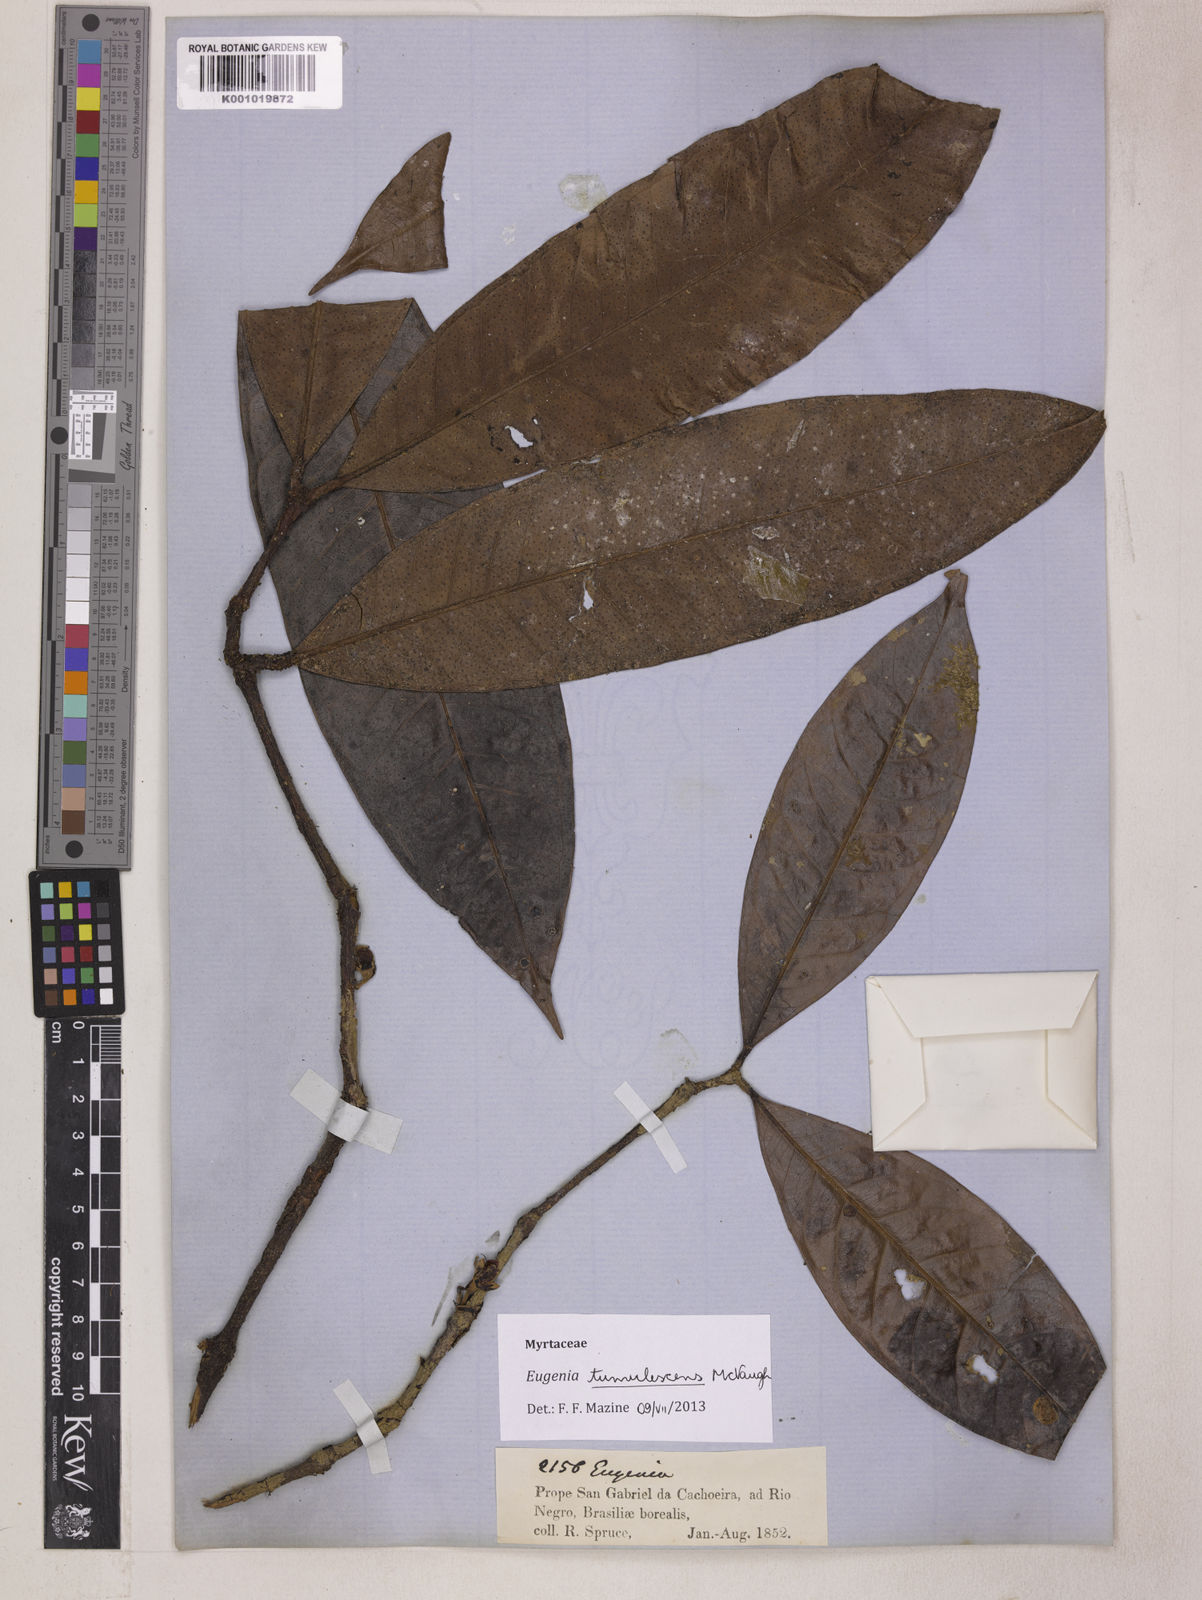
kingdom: Plantae
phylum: Tracheophyta
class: Magnoliopsida
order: Myrtales
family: Myrtaceae
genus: Eugenia
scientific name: Eugenia tumulescens
